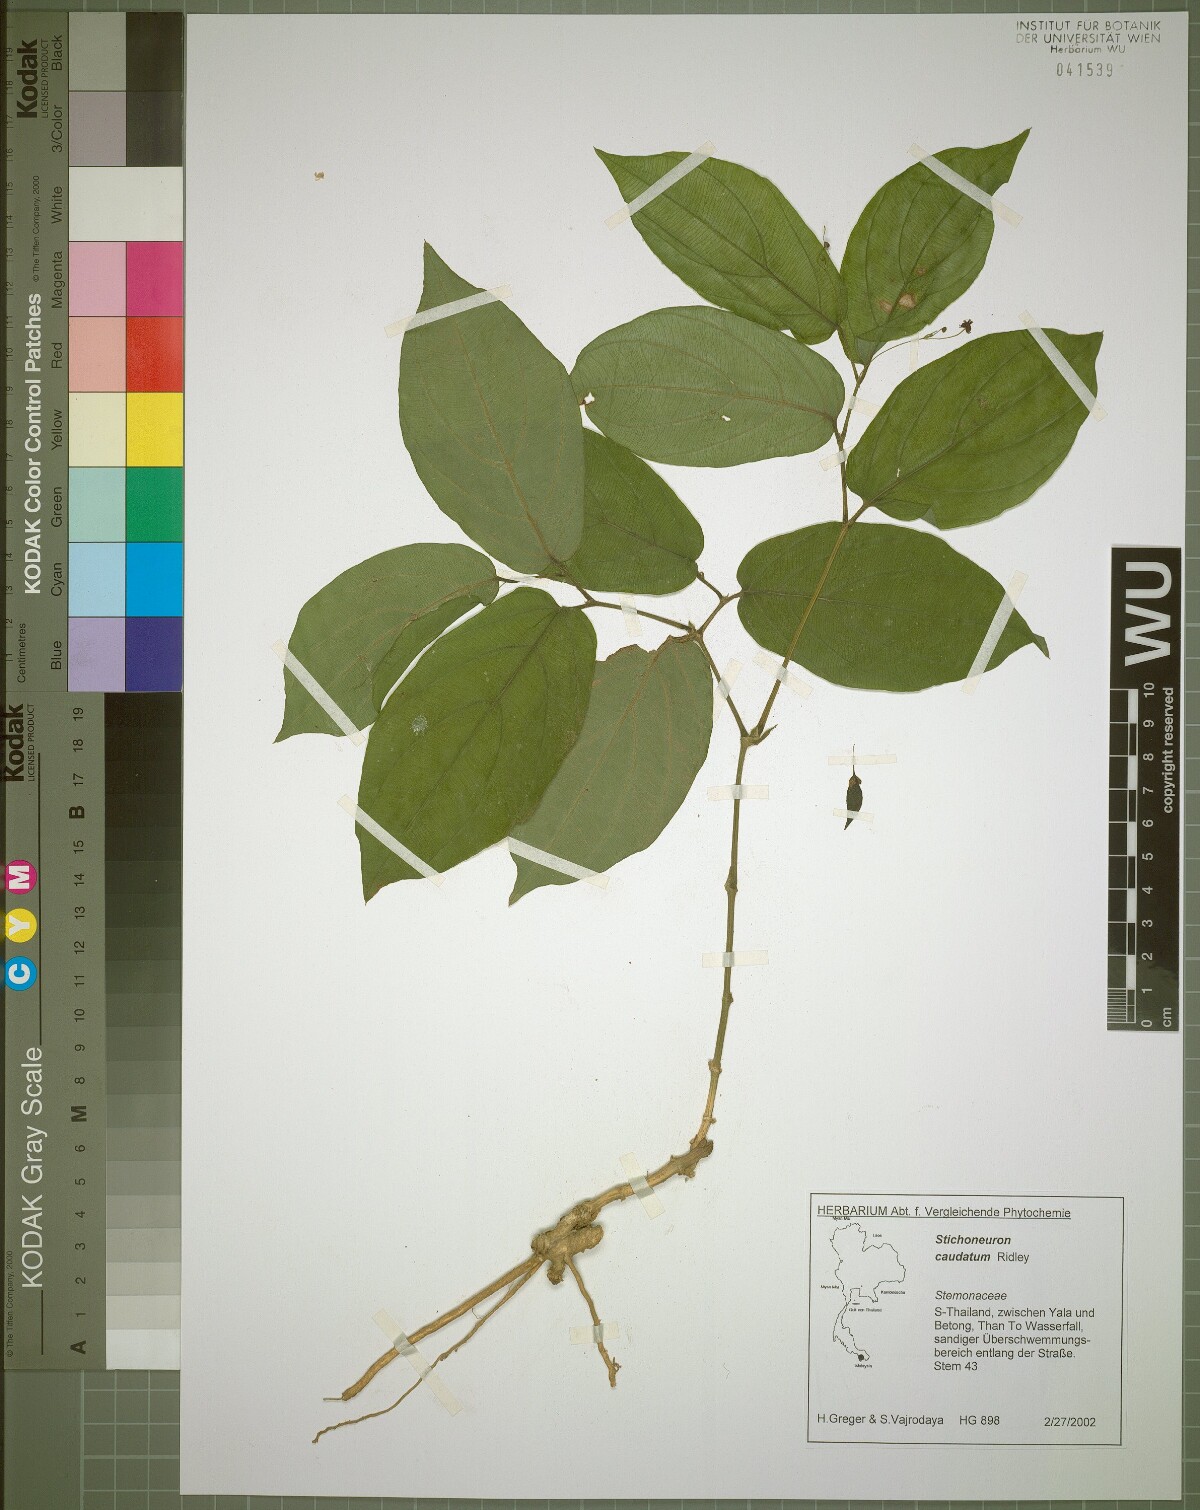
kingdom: Plantae
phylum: Tracheophyta
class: Liliopsida
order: Pandanales
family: Stemonaceae
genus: Stichoneuron
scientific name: Stichoneuron caudatum
